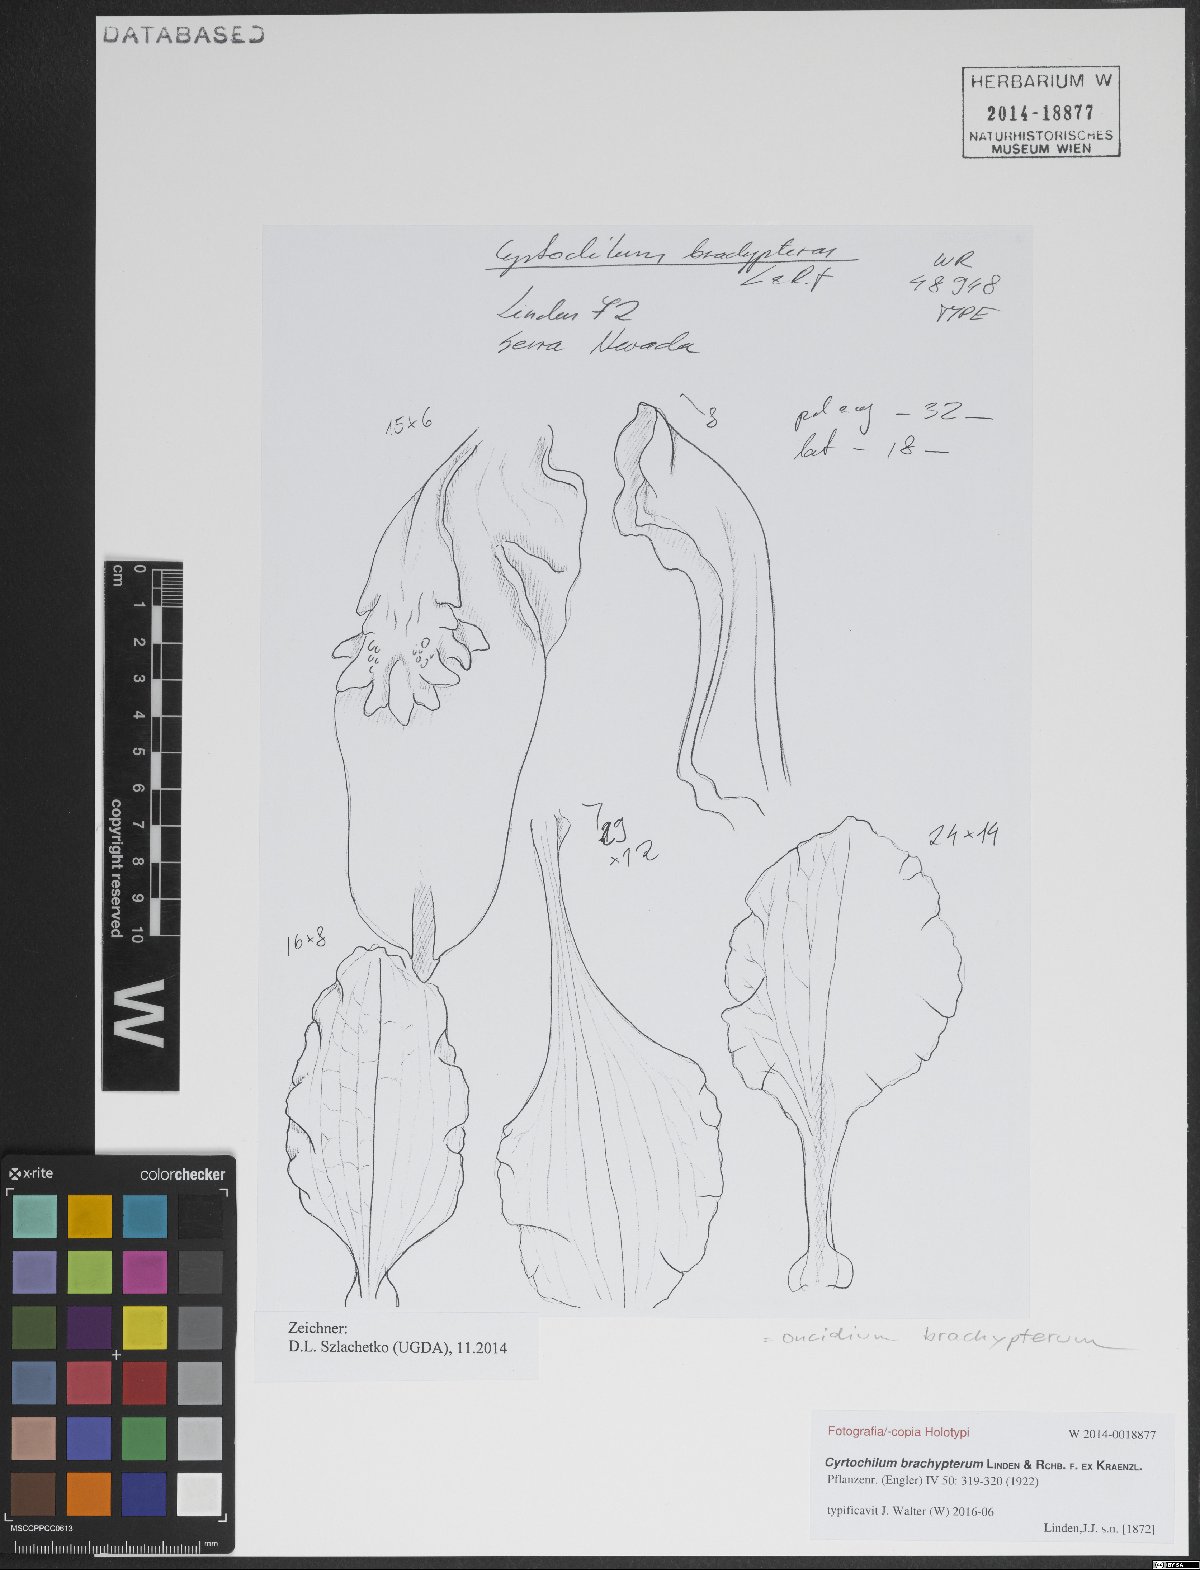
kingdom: Plantae
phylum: Tracheophyta
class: Liliopsida
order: Asparagales
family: Orchidaceae
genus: Cyrtochilum
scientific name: Cyrtochilum brachypterum
